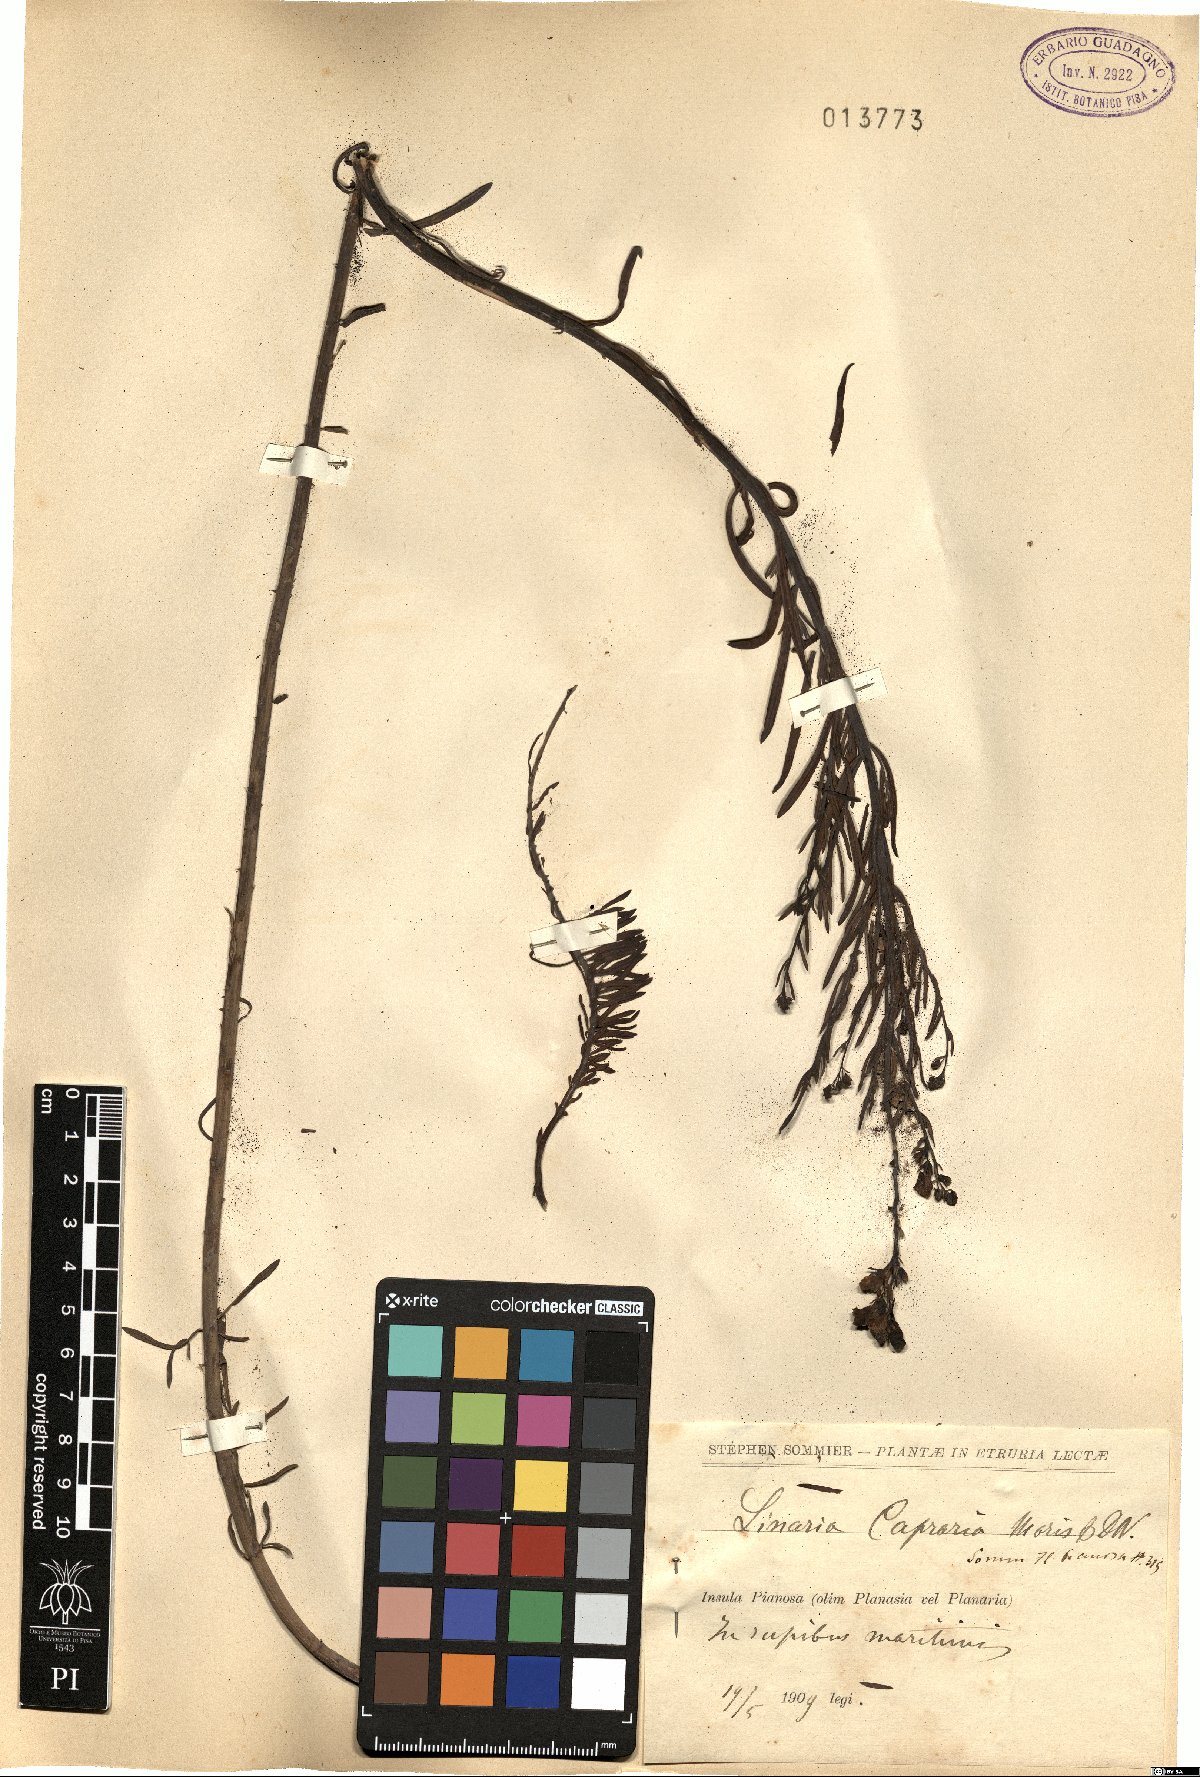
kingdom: Plantae
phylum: Tracheophyta
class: Magnoliopsida
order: Lamiales
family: Plantaginaceae
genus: Linaria
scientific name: Linaria capraria
